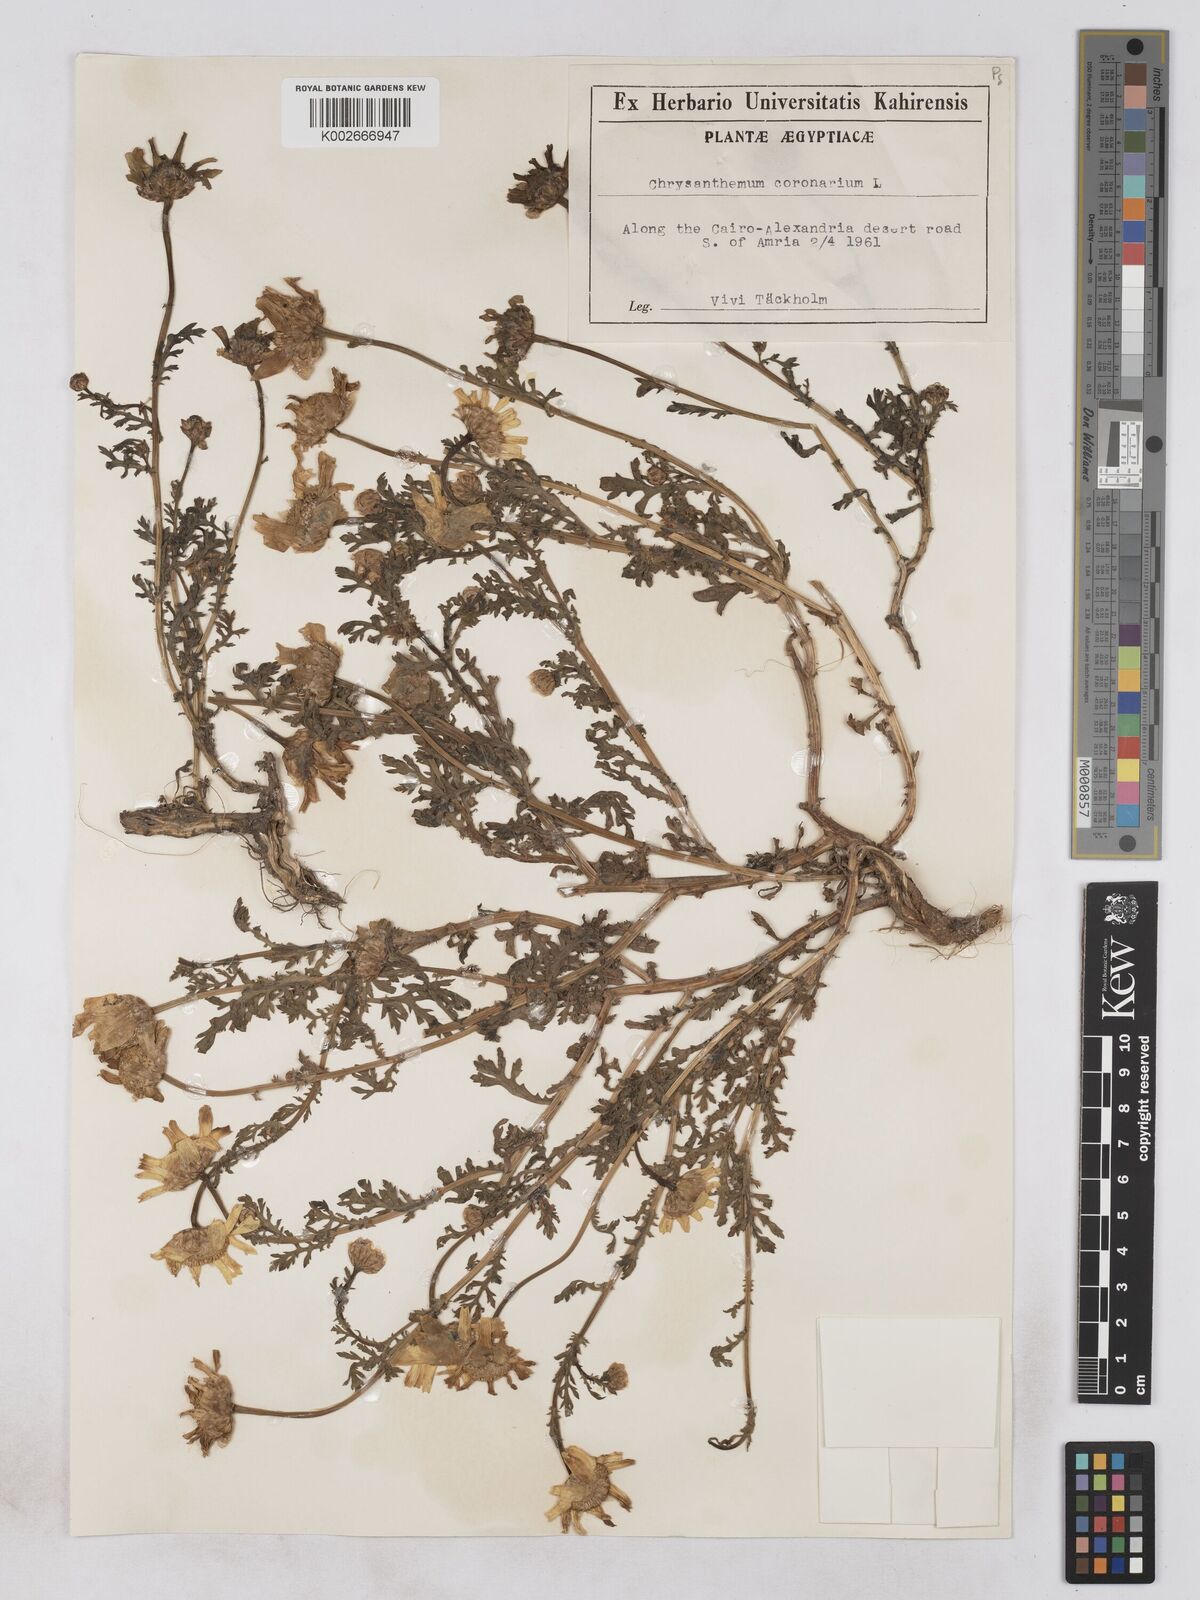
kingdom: Plantae
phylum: Tracheophyta
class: Magnoliopsida
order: Asterales
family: Asteraceae
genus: Glebionis
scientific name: Glebionis coronaria
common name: Crowndaisy
